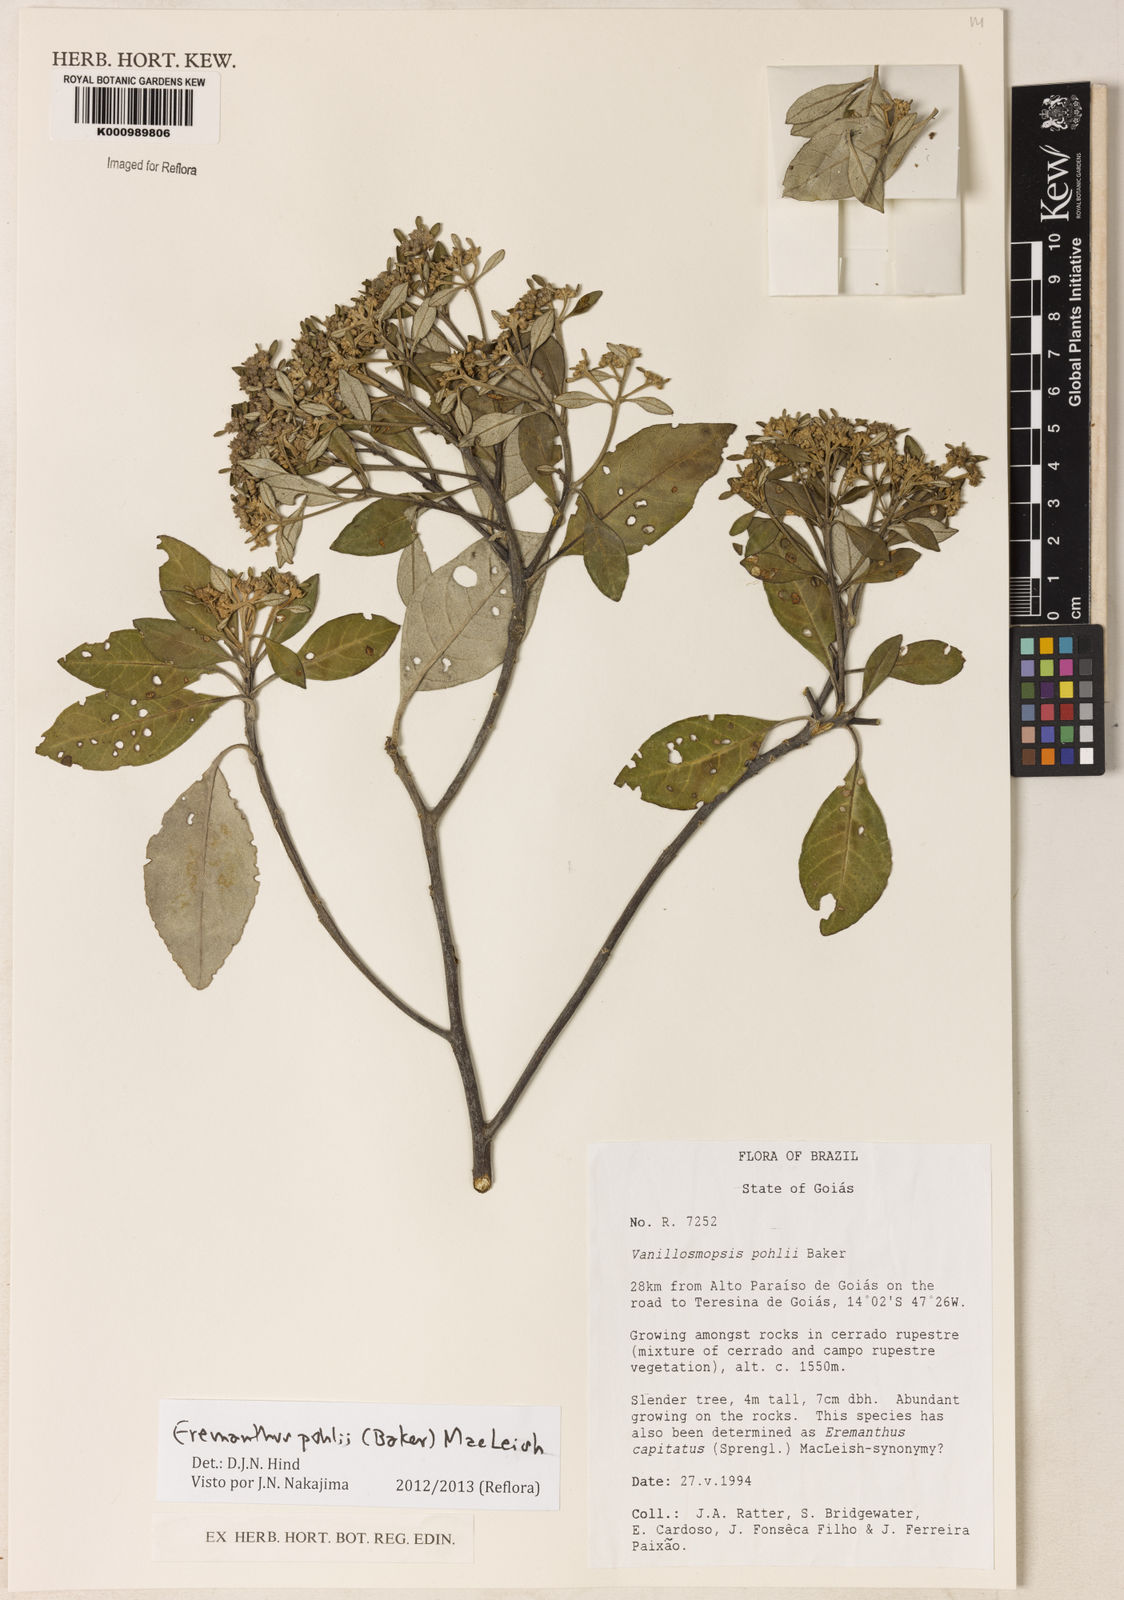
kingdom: Plantae
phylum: Tracheophyta
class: Magnoliopsida
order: Asterales
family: Asteraceae
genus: Eremanthus
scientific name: Eremanthus capitatus
